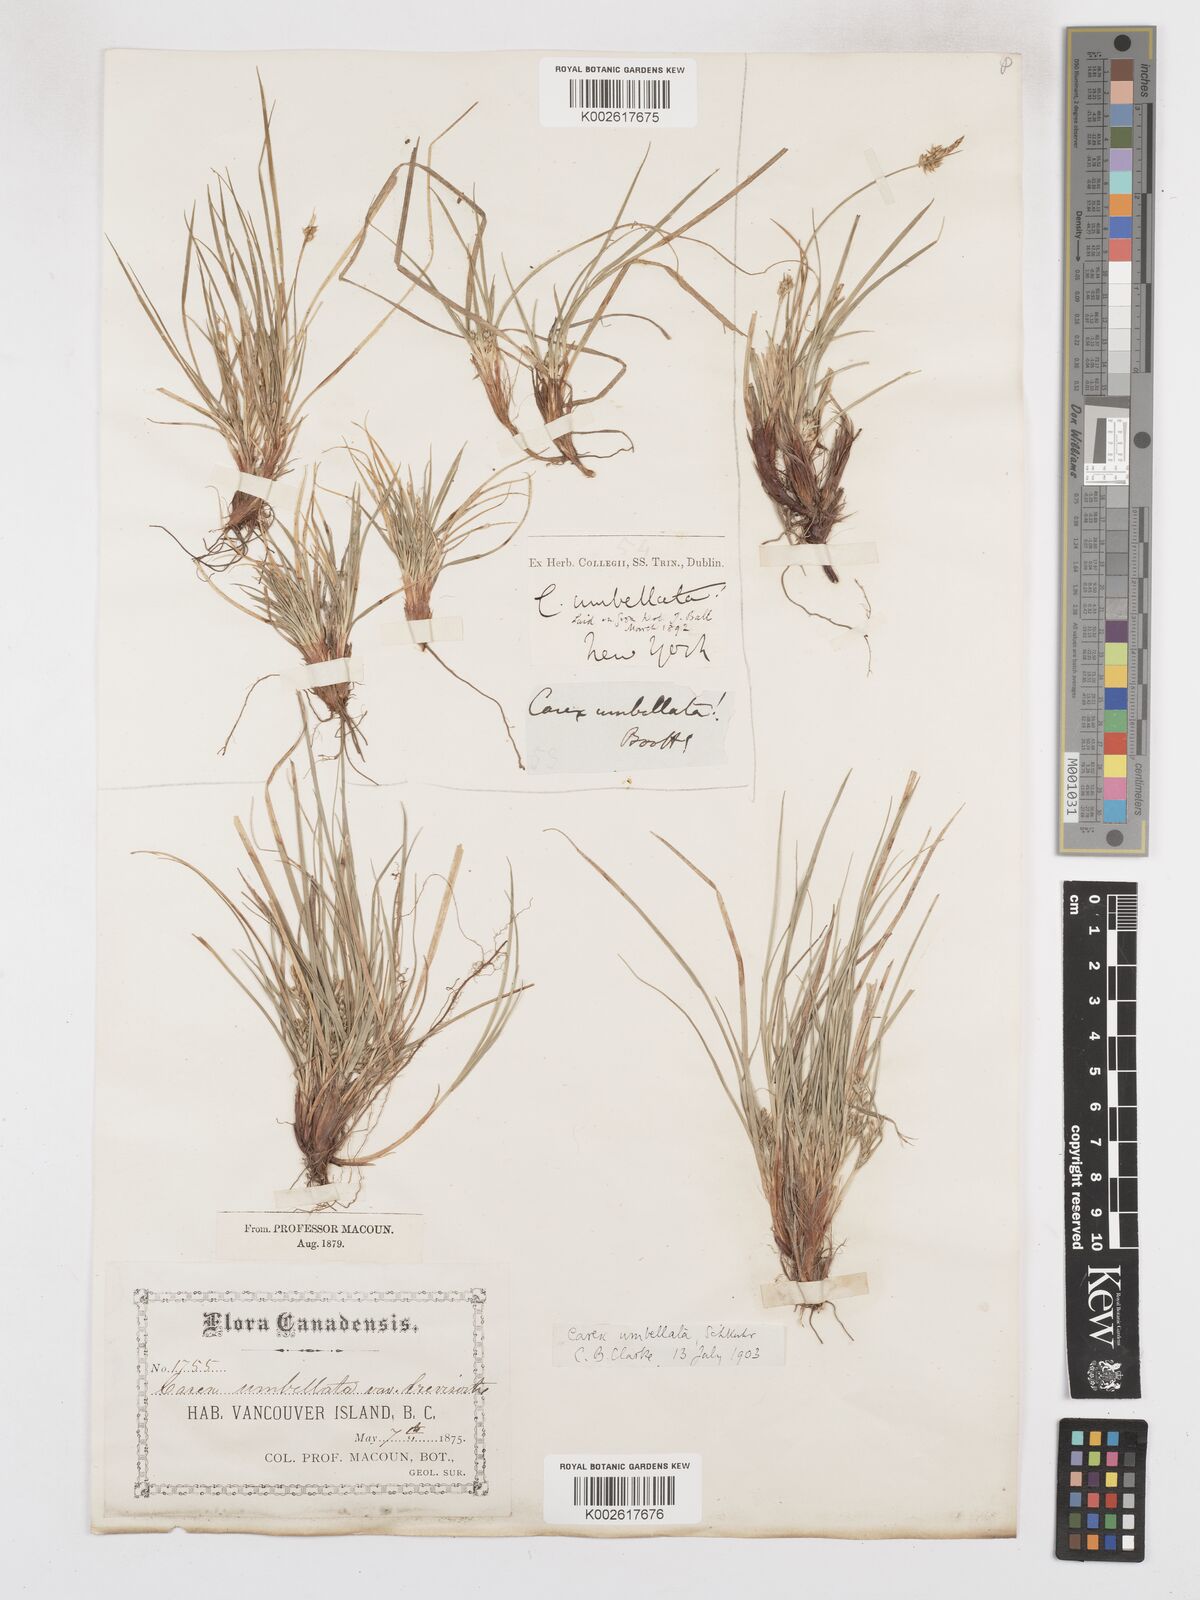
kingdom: Plantae
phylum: Tracheophyta
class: Liliopsida
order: Poales
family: Cyperaceae
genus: Carex
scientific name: Carex umbellata
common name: Early oak sedge
